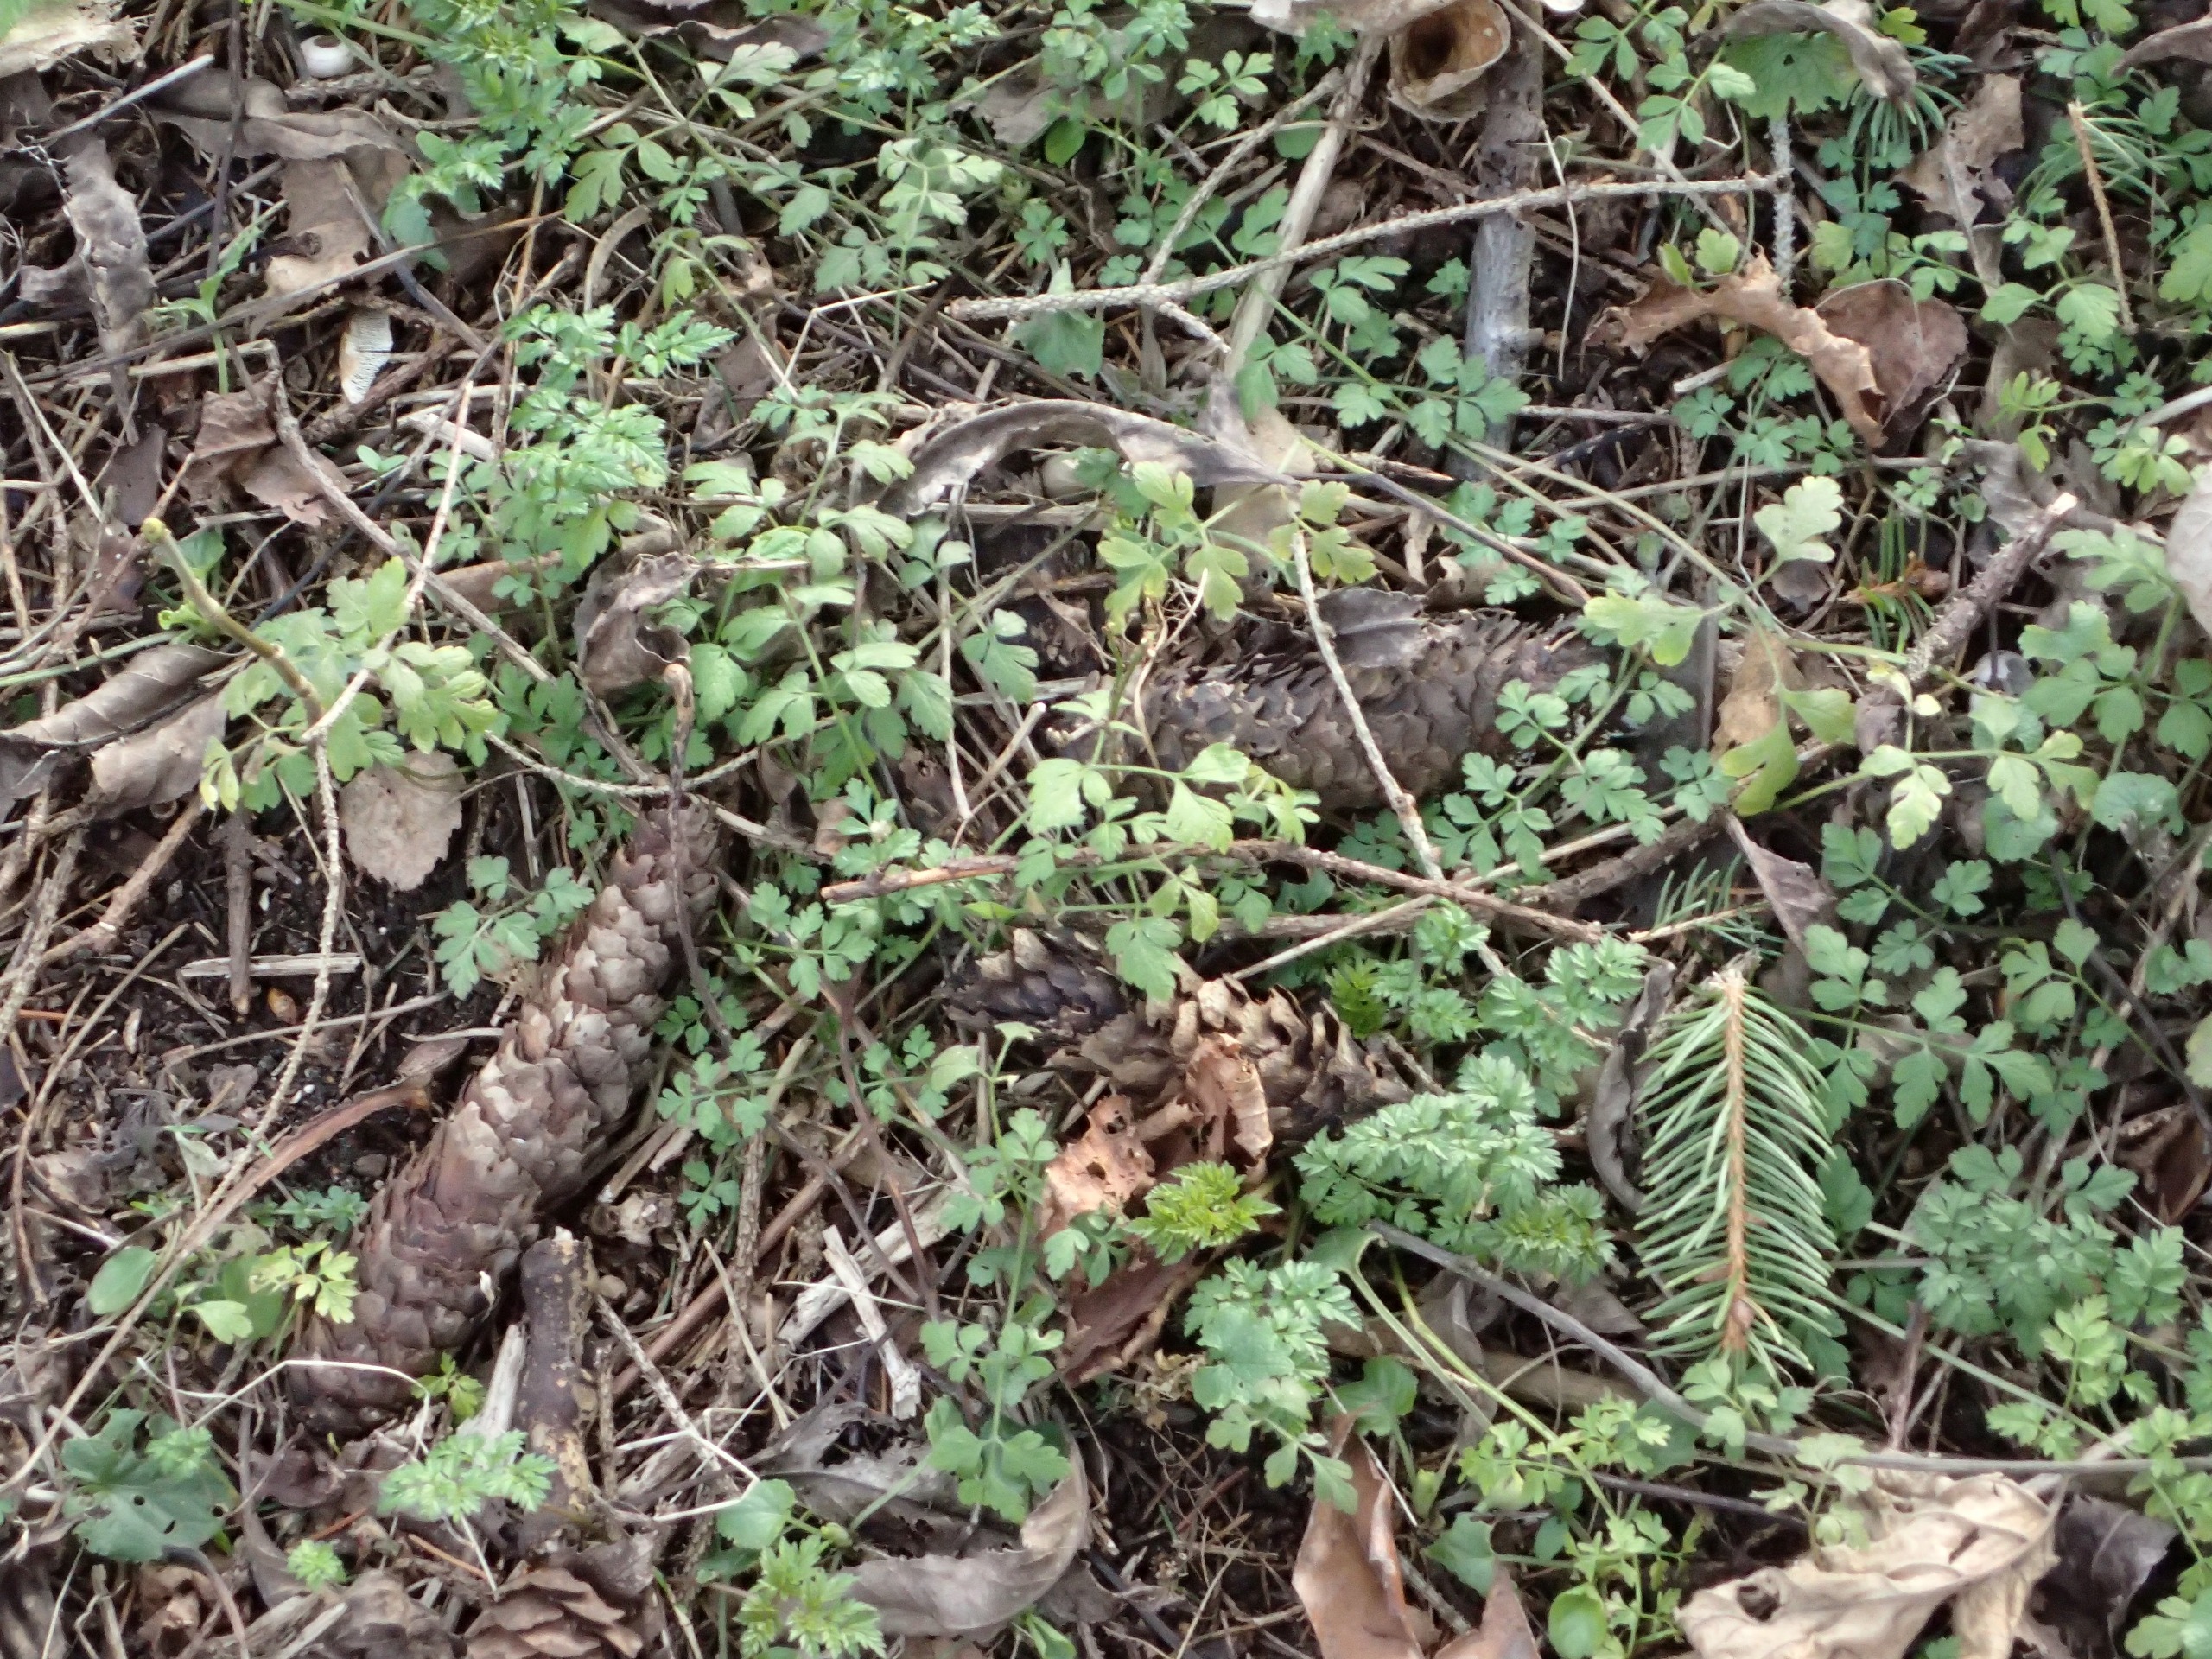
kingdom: Plantae
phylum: Tracheophyta
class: Magnoliopsida
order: Apiales
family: Apiaceae
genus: Chaerophyllum
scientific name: Chaerophyllum temulum
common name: Almindelig hulsvøb
